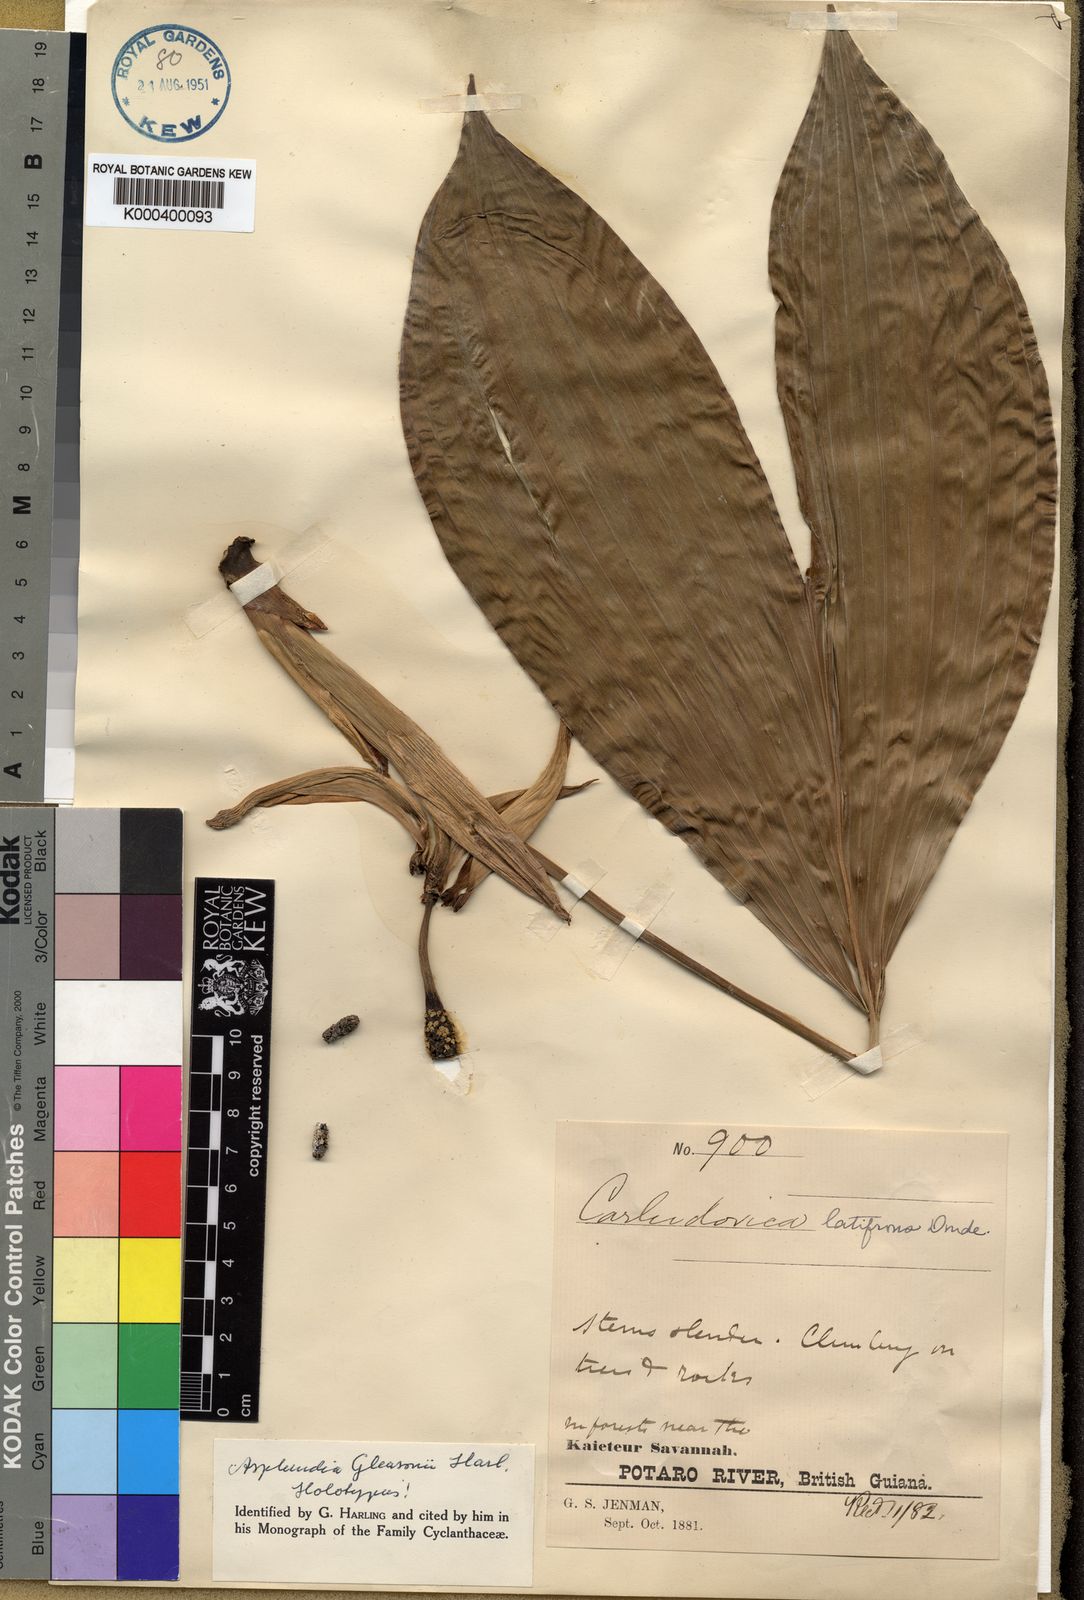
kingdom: Plantae
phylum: Tracheophyta
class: Liliopsida
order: Pandanales
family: Cyclanthaceae
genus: Asplundia
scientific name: Asplundia gleasonii
